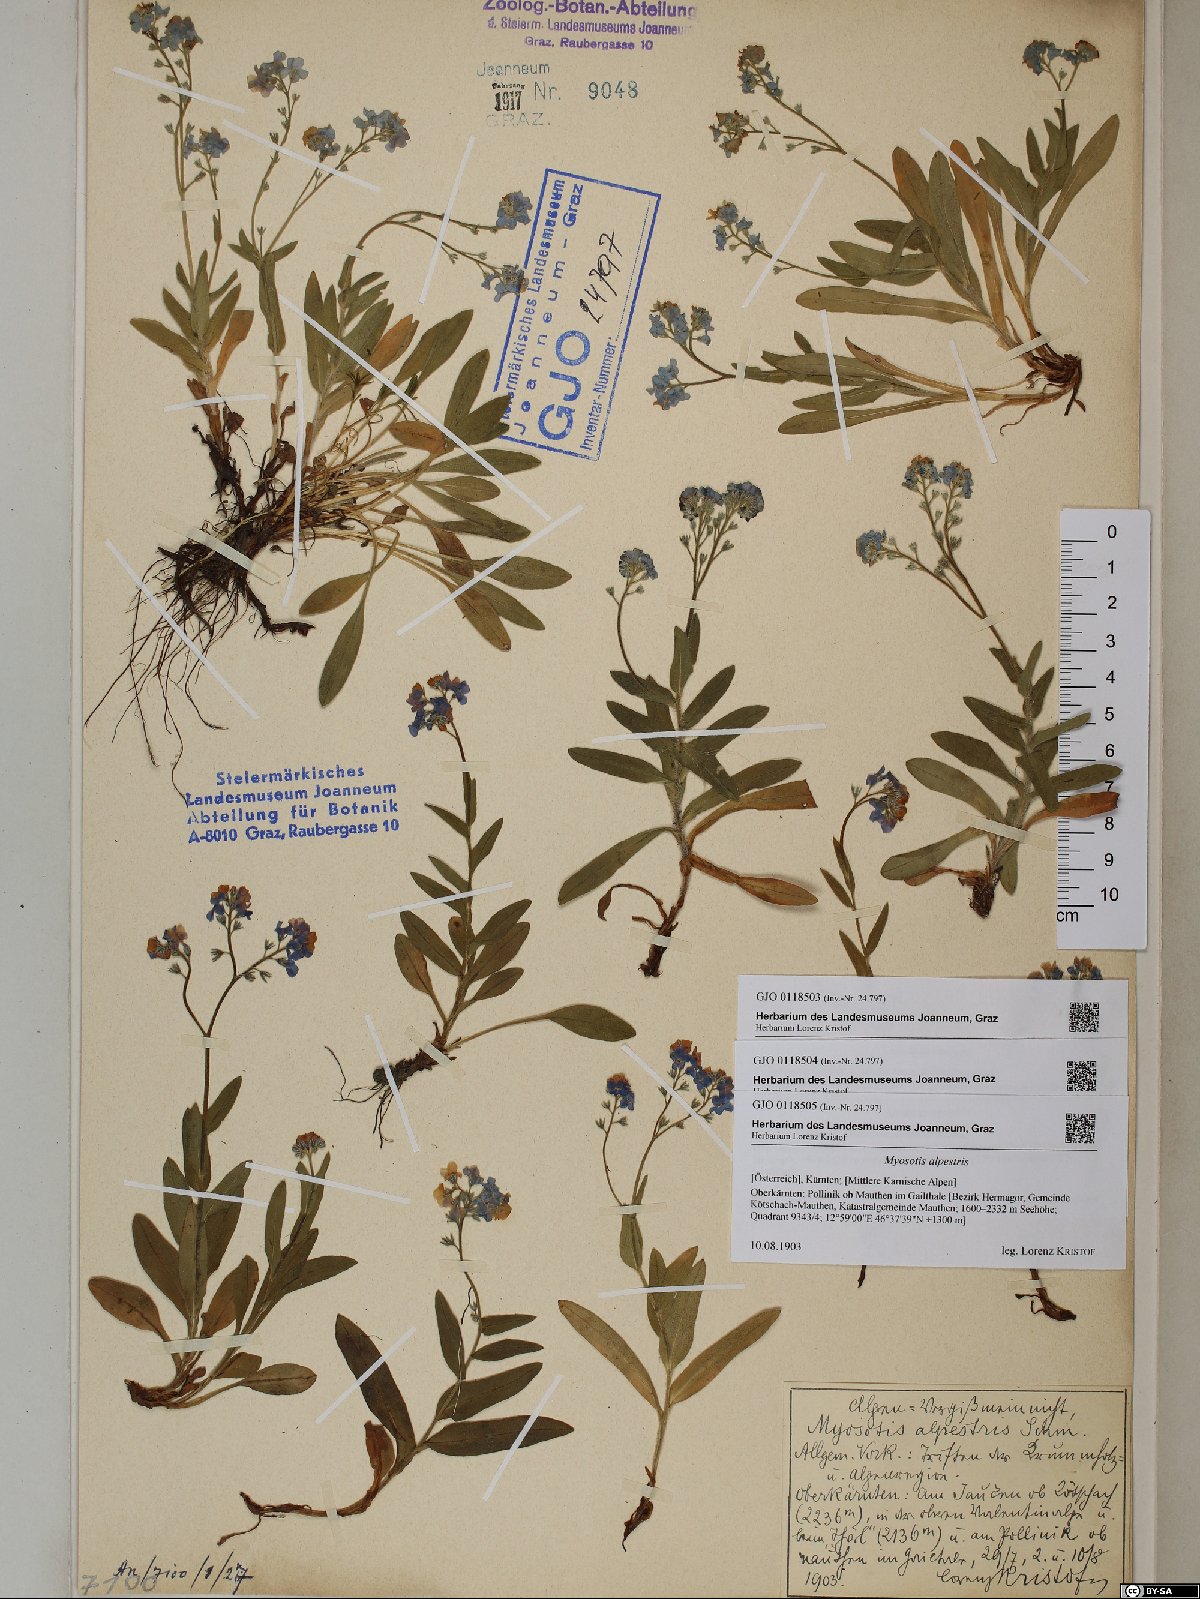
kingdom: Plantae
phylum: Tracheophyta
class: Magnoliopsida
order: Boraginales
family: Boraginaceae
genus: Myosotis
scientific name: Myosotis alpestris
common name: Alpine forget-me-not
